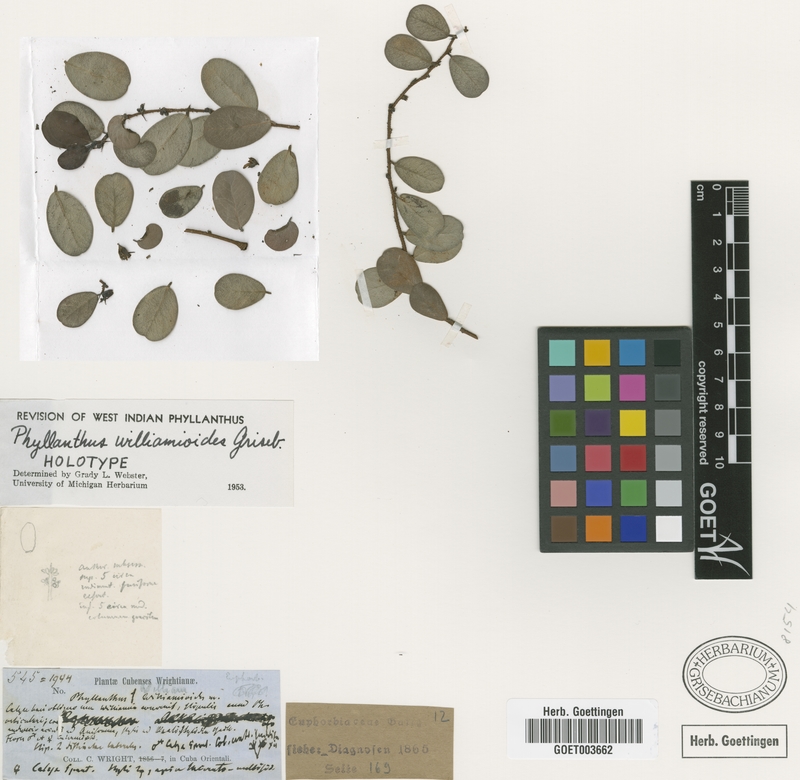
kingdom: Plantae
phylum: Tracheophyta
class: Magnoliopsida
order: Malpighiales
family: Phyllanthaceae
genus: Phyllanthus
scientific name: Phyllanthus williamioides
